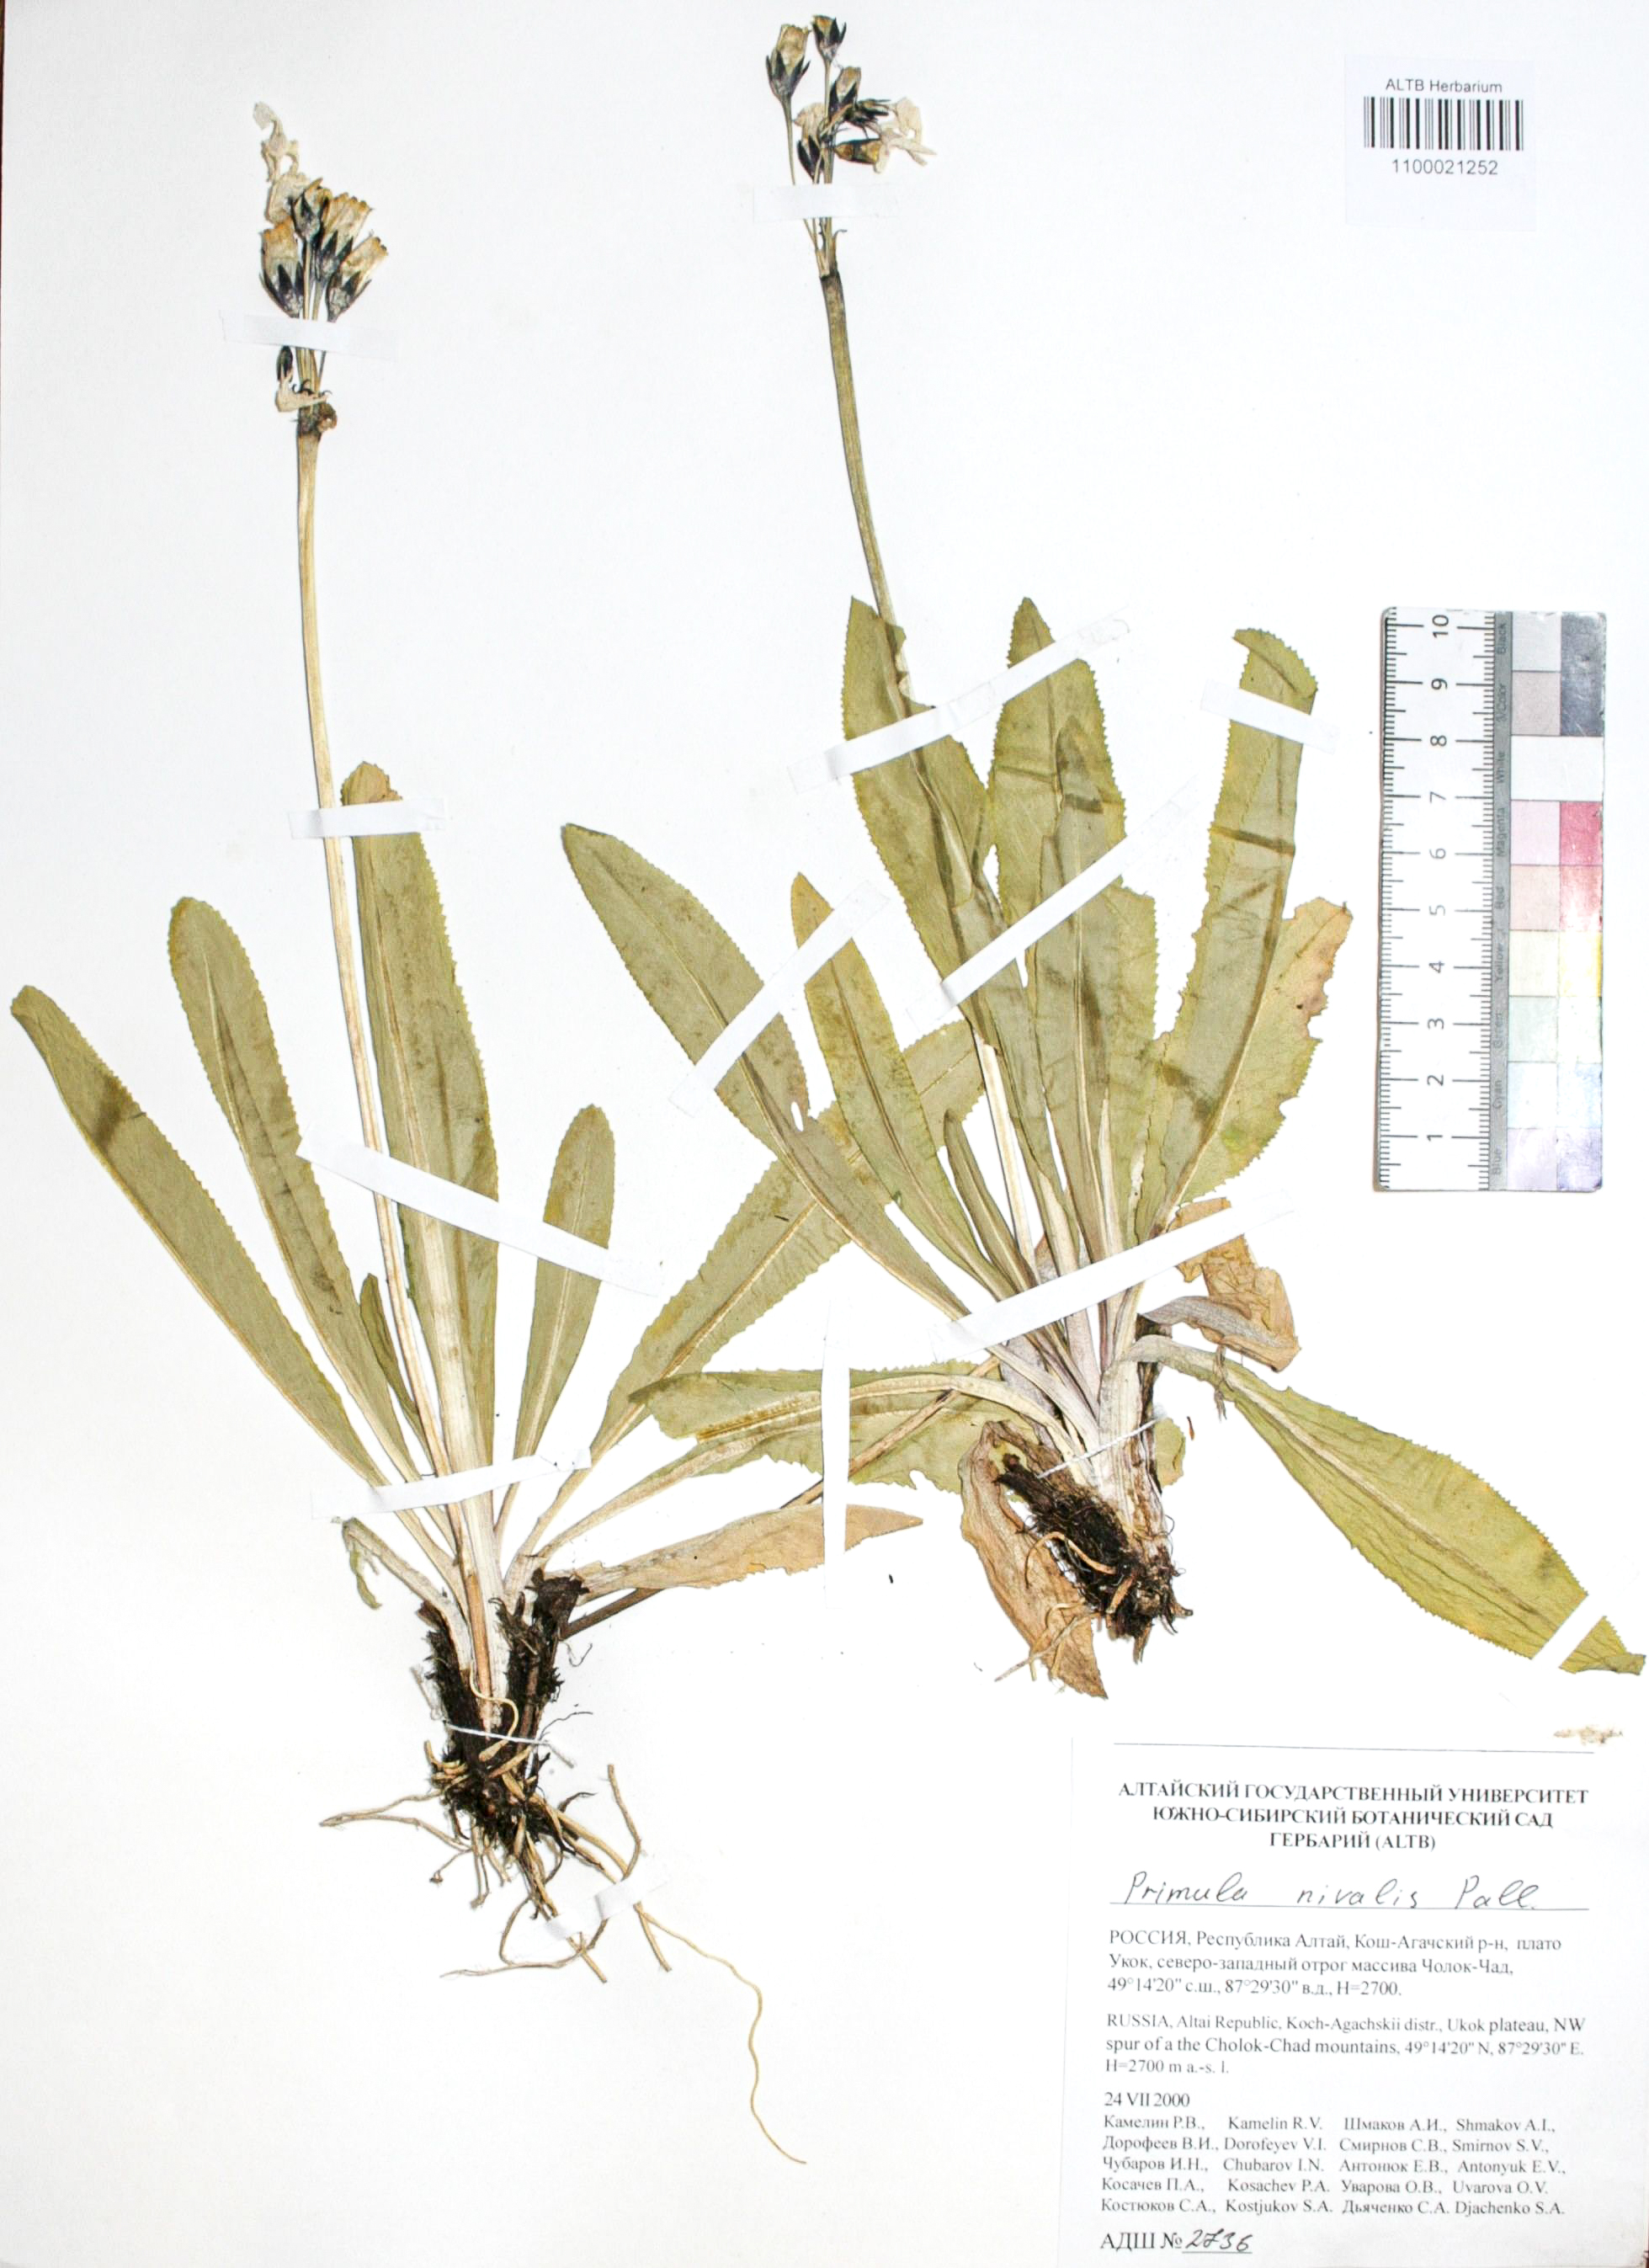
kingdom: Plantae
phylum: Tracheophyta
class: Magnoliopsida
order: Ericales
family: Primulaceae
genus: Primula
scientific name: Primula nivalis
